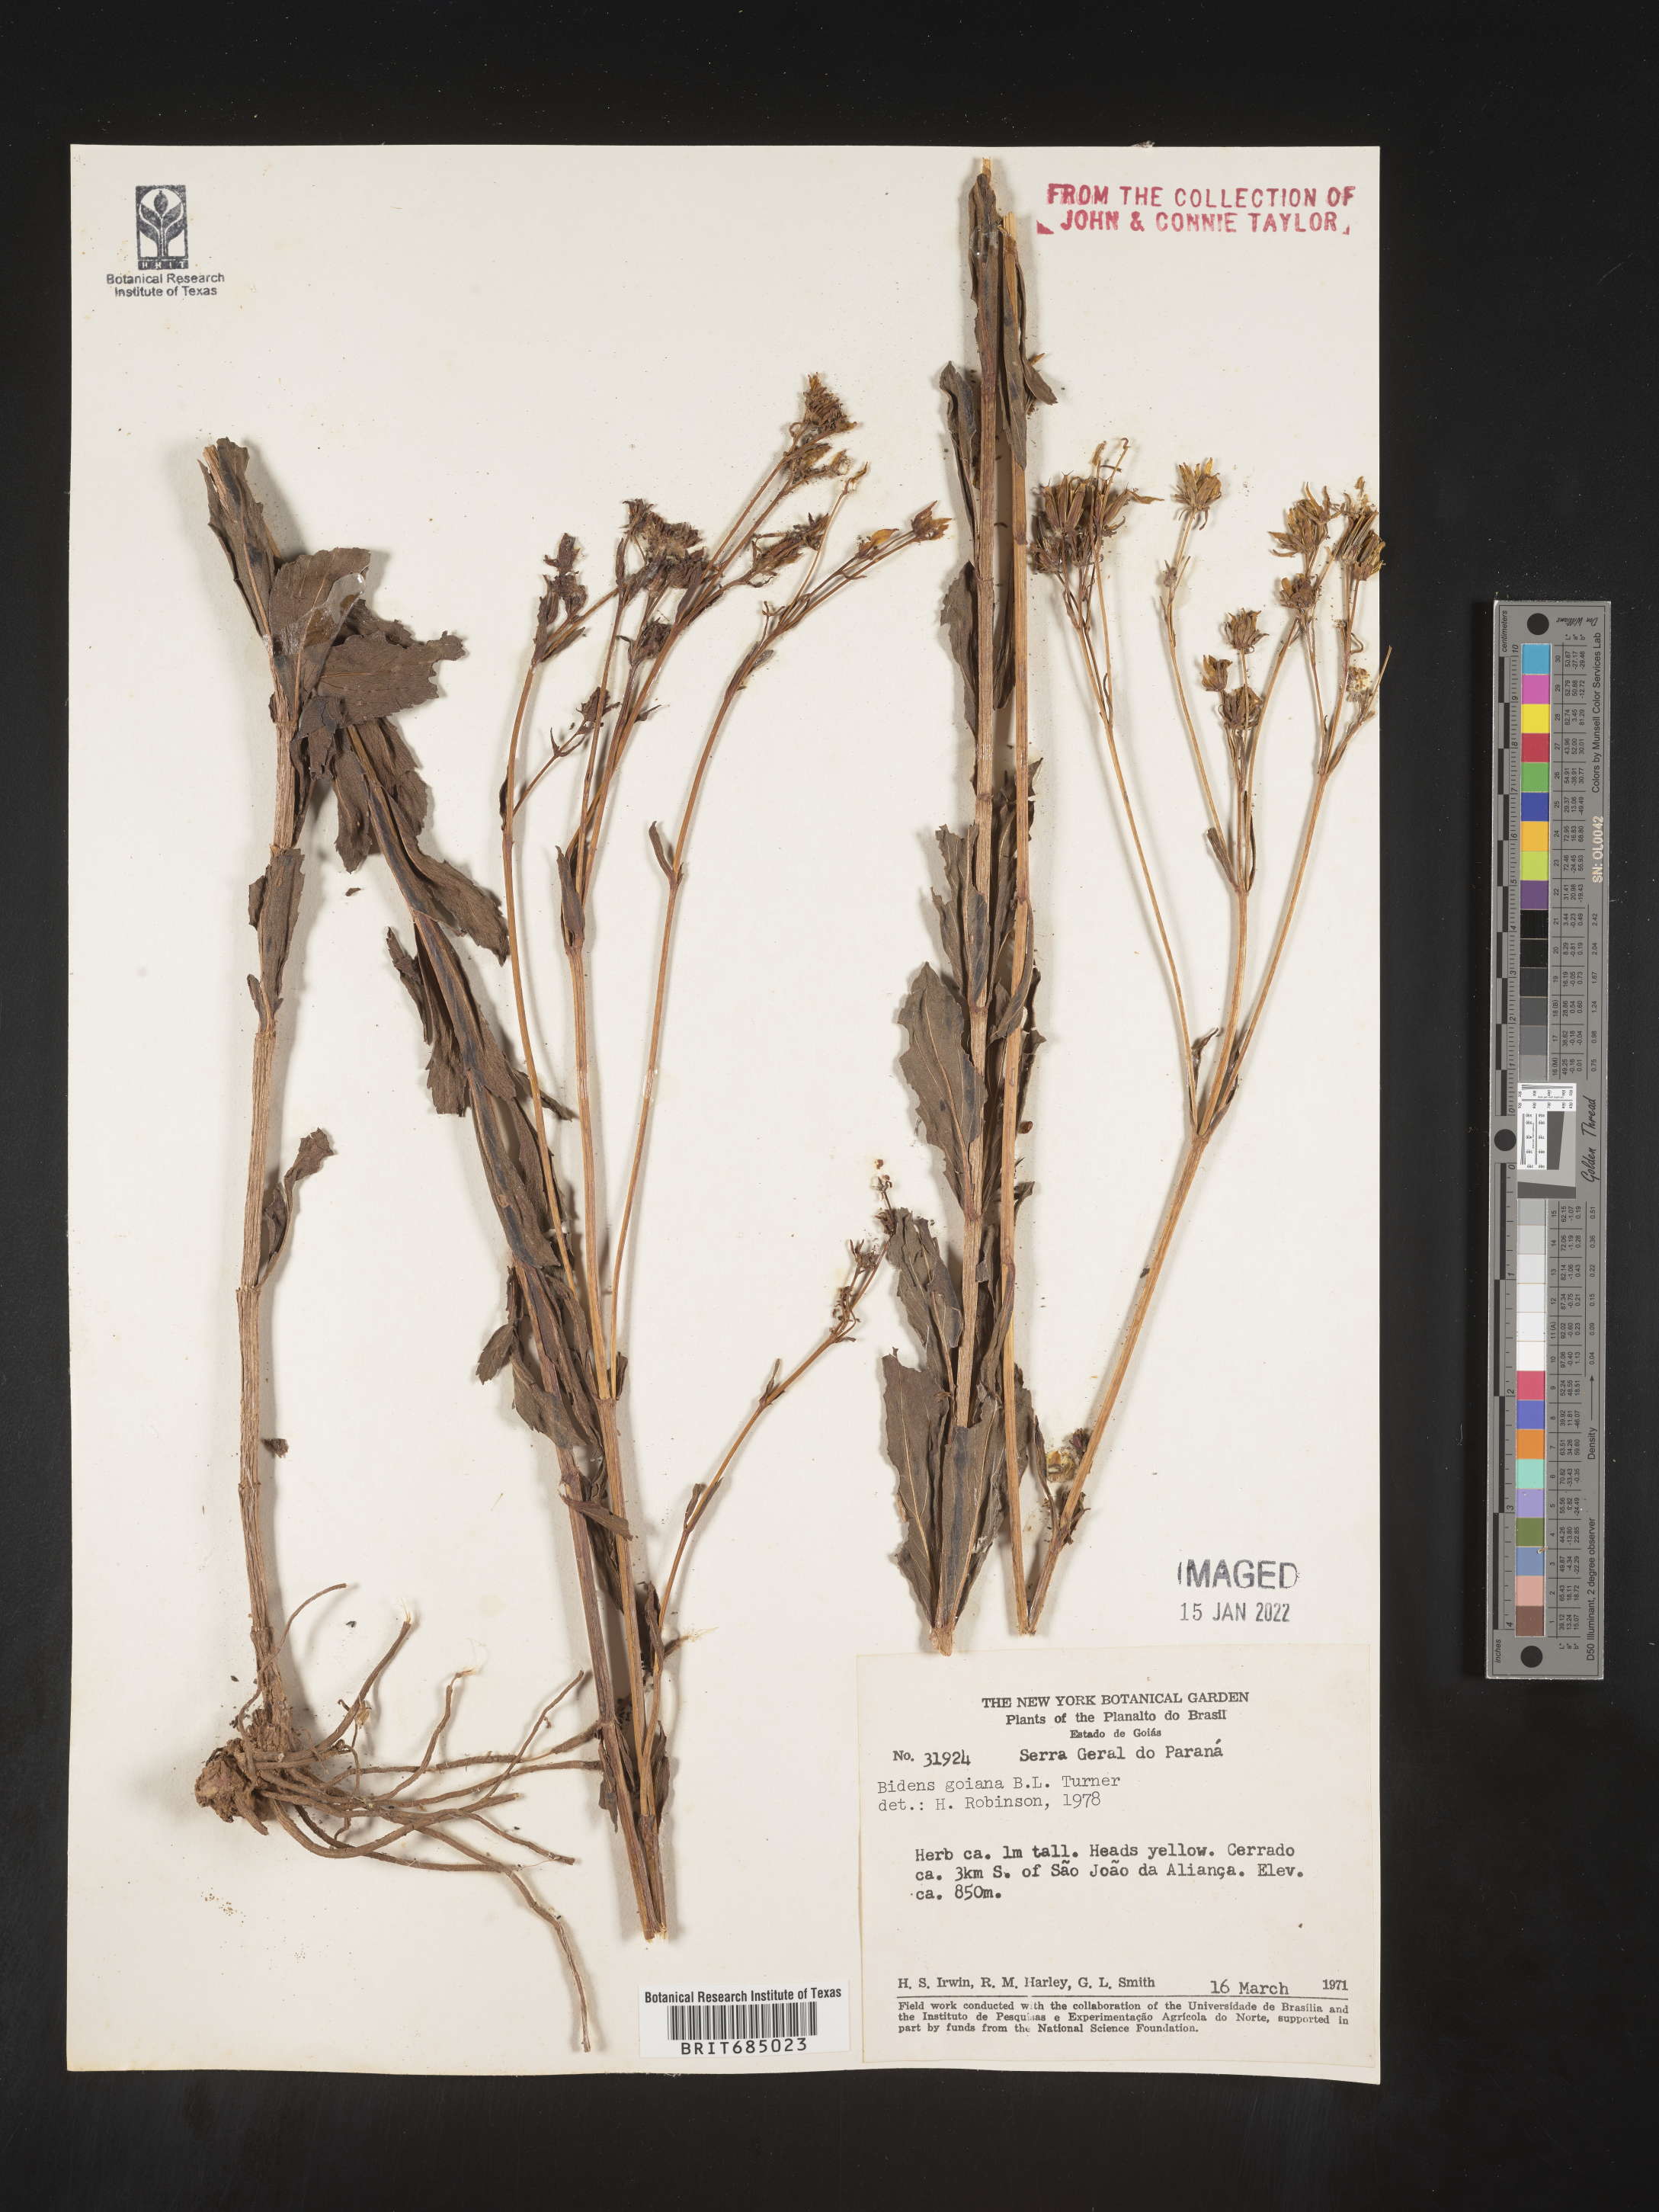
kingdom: Plantae
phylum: Tracheophyta
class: Magnoliopsida
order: Asterales
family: Asteraceae
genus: Bidens
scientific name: Bidens
